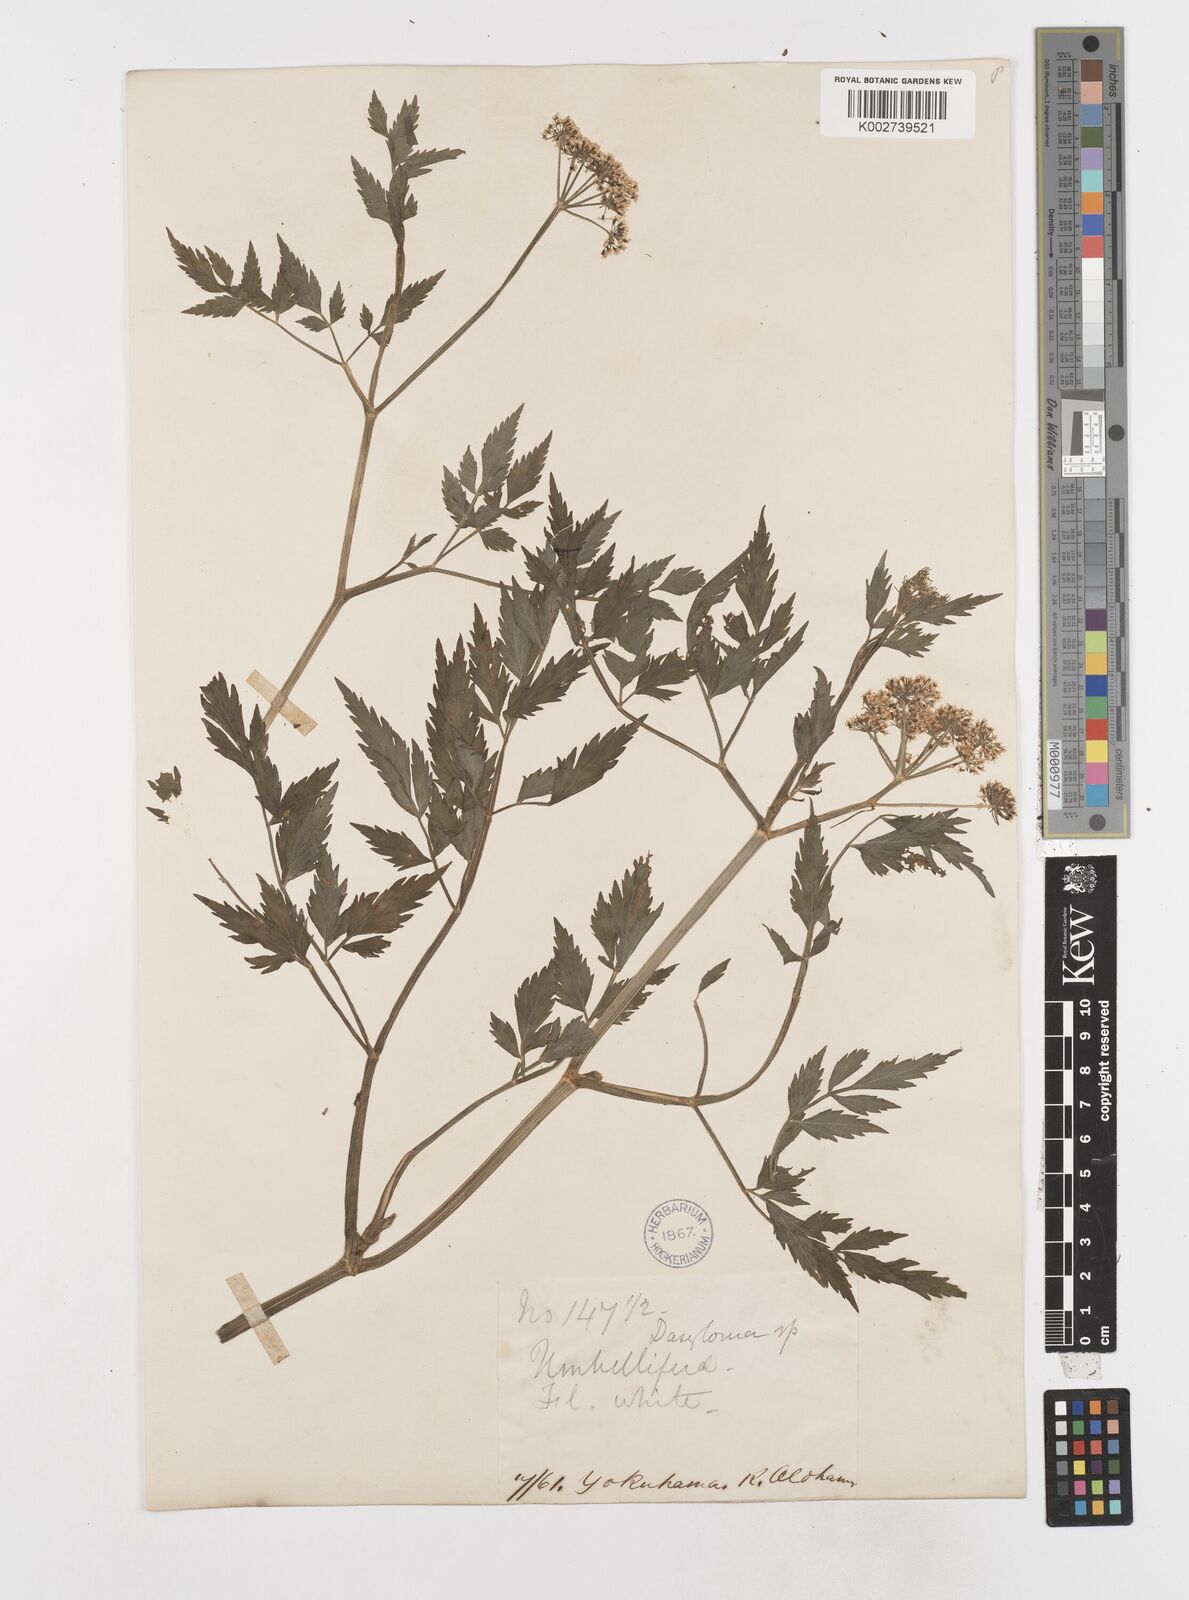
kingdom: Plantae
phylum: Tracheophyta
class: Magnoliopsida
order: Apiales
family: Apiaceae
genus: Oenanthe
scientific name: Oenanthe javanica
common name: Java water-dropwort
